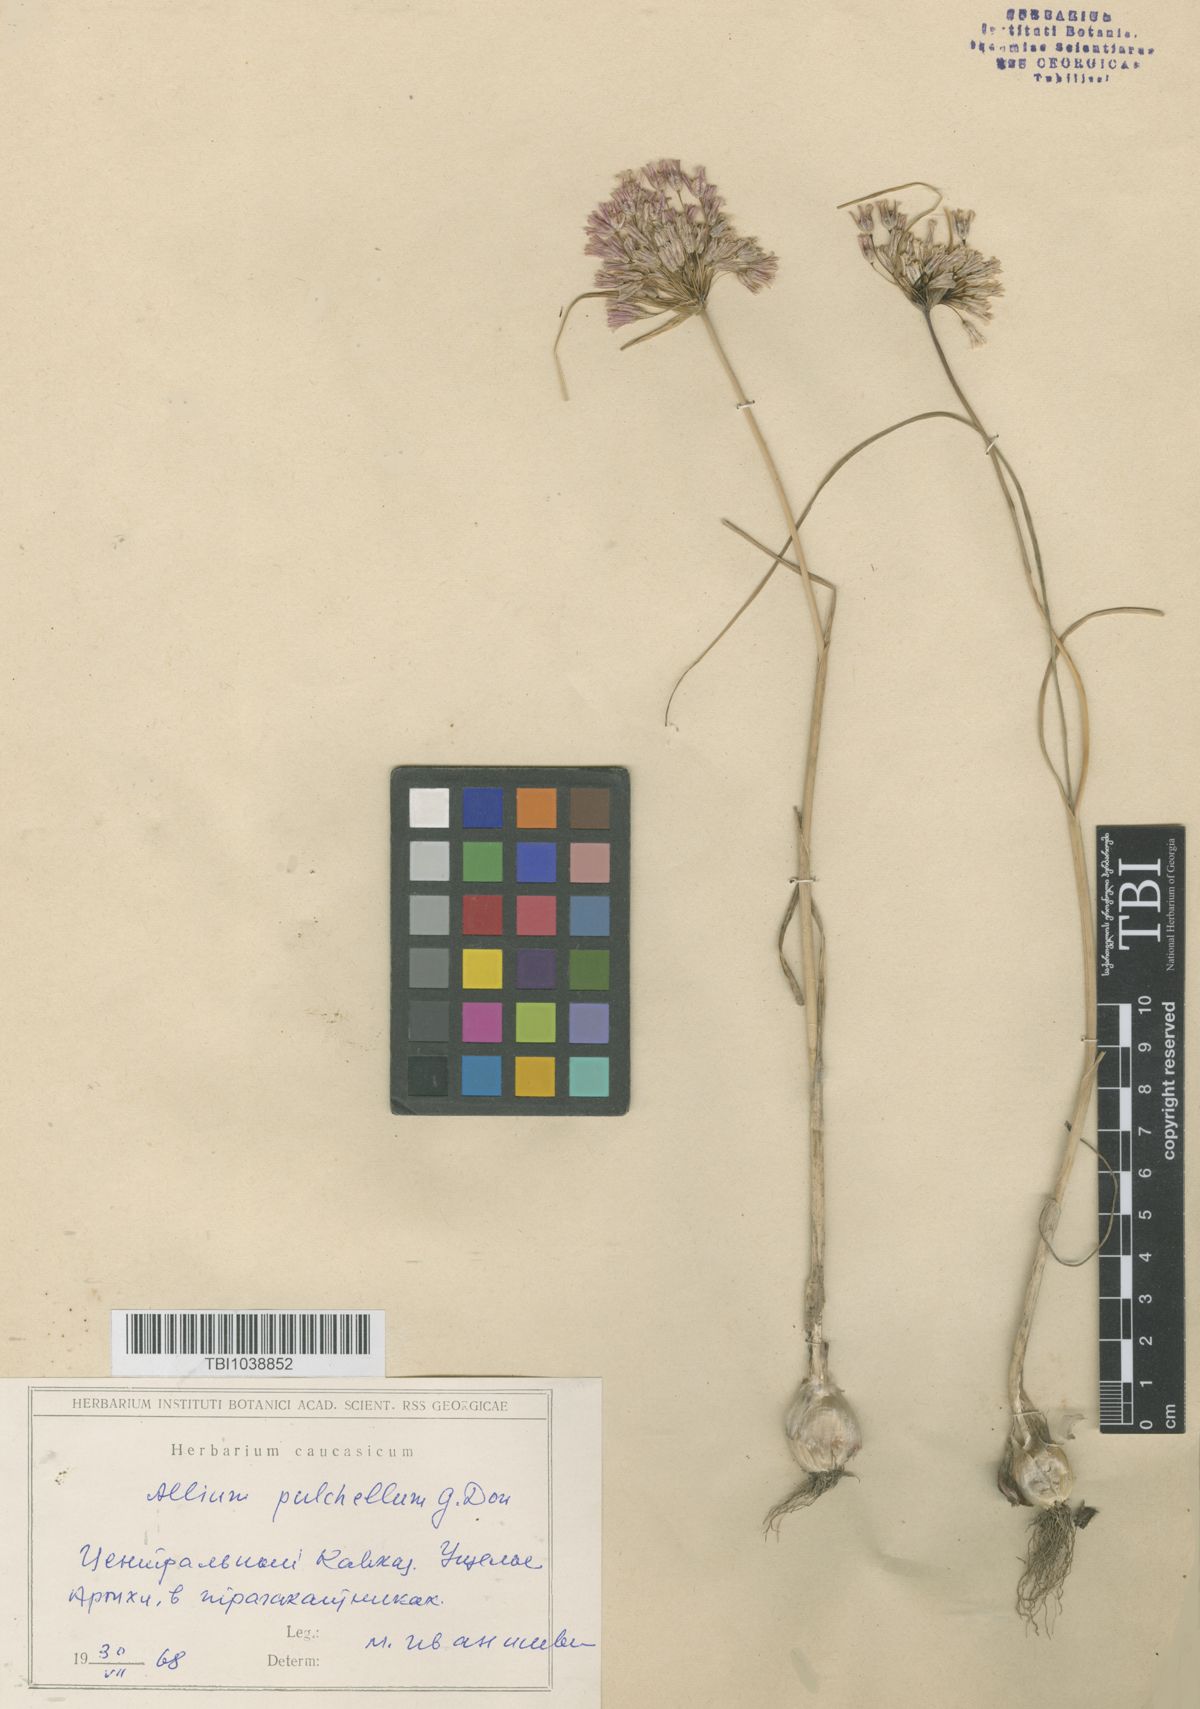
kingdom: Plantae
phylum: Tracheophyta
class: Liliopsida
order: Asparagales
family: Amaryllidaceae
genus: Allium
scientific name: Allium flavum
